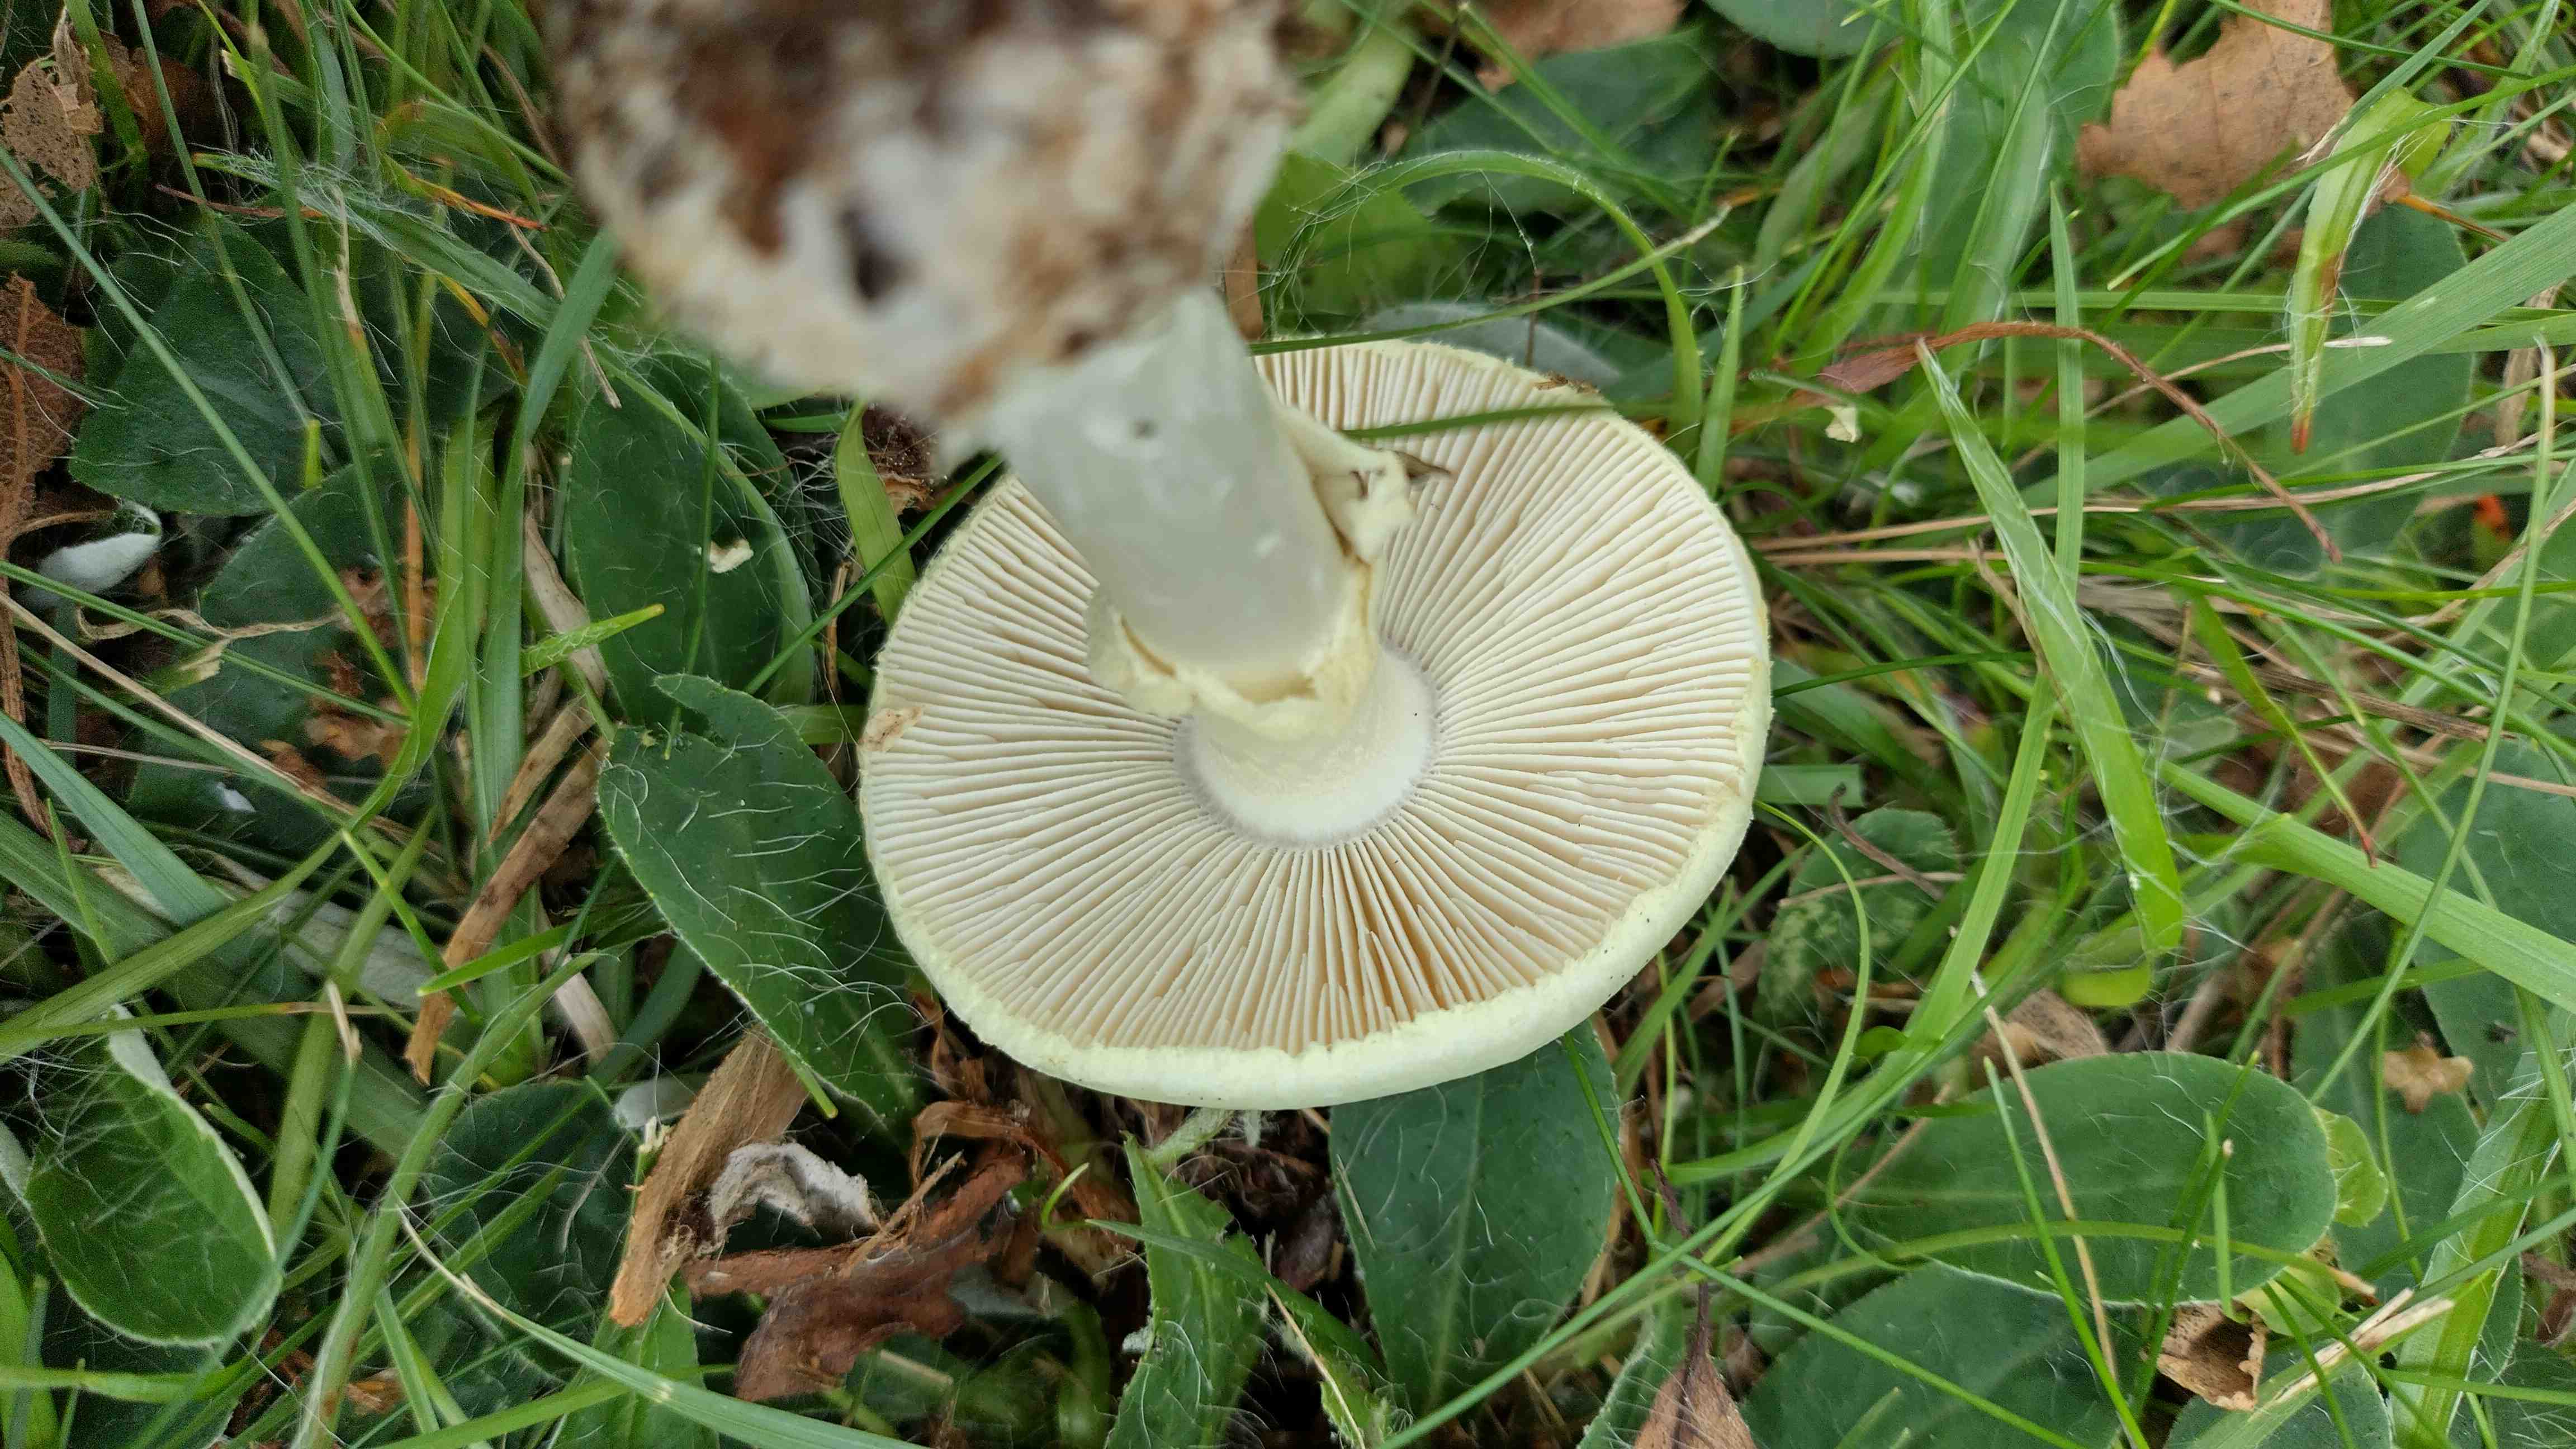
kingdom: Fungi
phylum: Basidiomycota
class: Agaricomycetes
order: Agaricales
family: Amanitaceae
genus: Amanita
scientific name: Amanita citrina
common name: kugleknoldet fluesvamp
